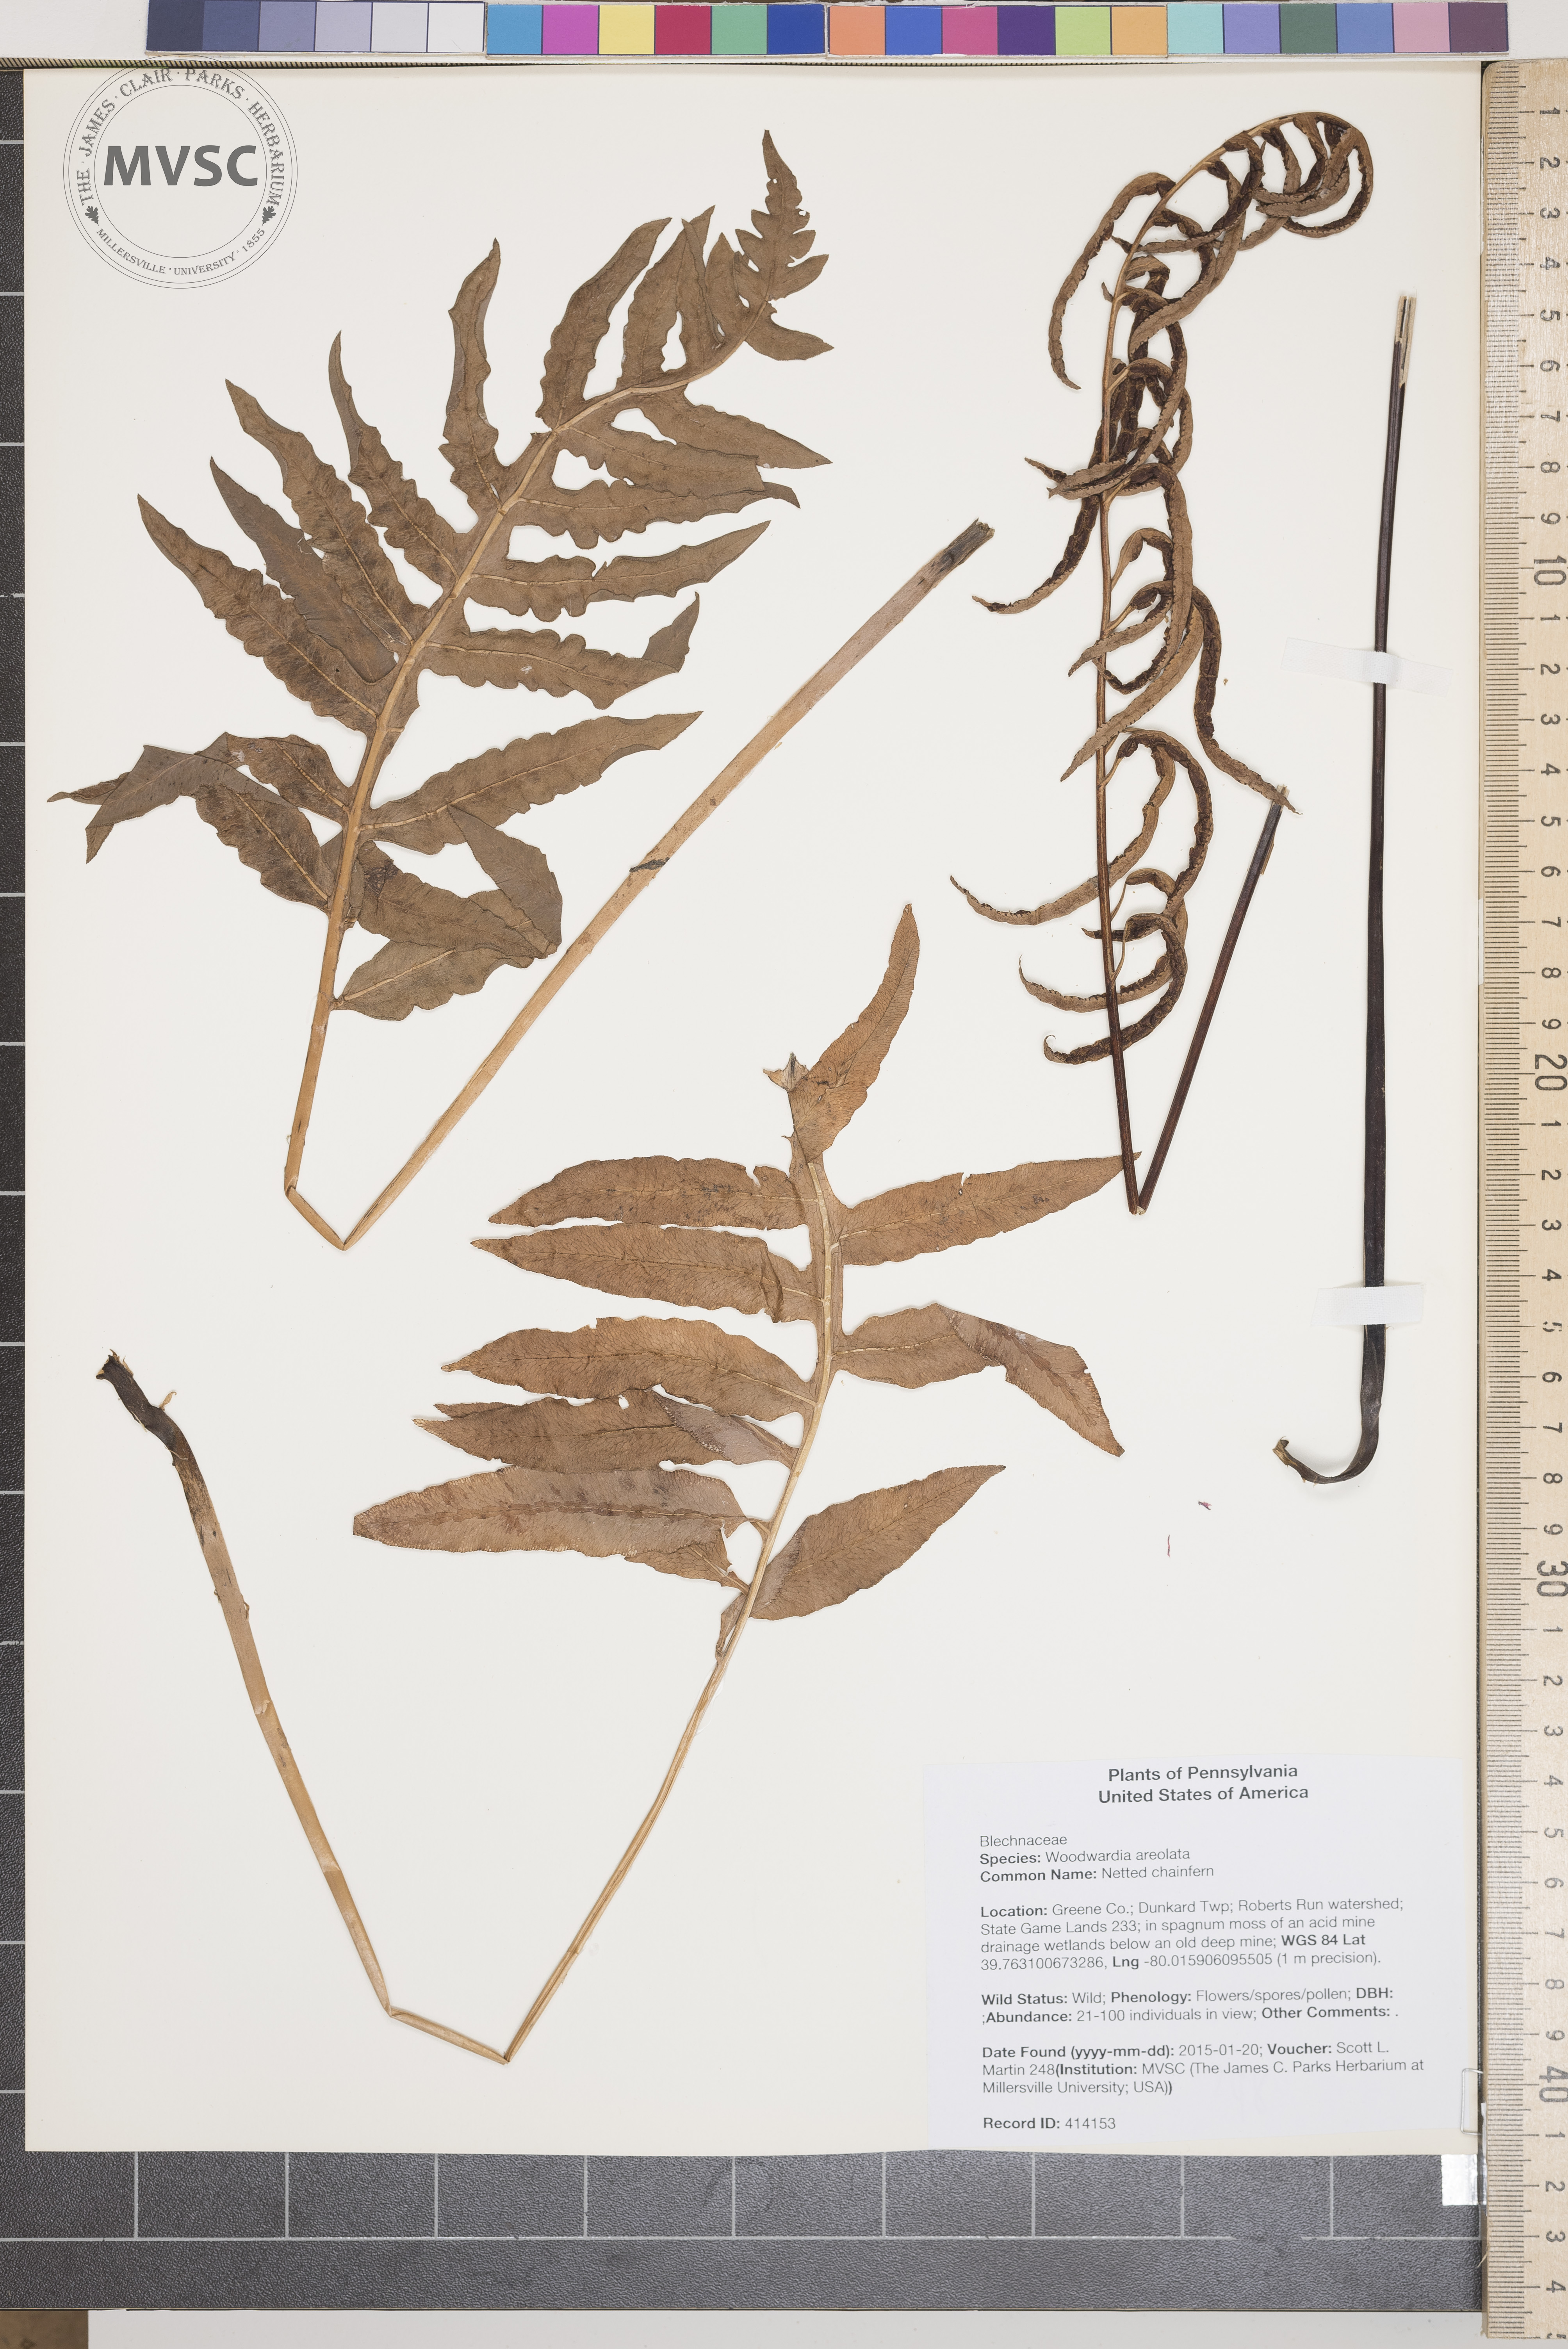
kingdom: Plantae
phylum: Tracheophyta
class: Polypodiopsida
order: Polypodiales
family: Blechnaceae
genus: Lorinseria
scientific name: Lorinseria areolata
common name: Netted chainfern
